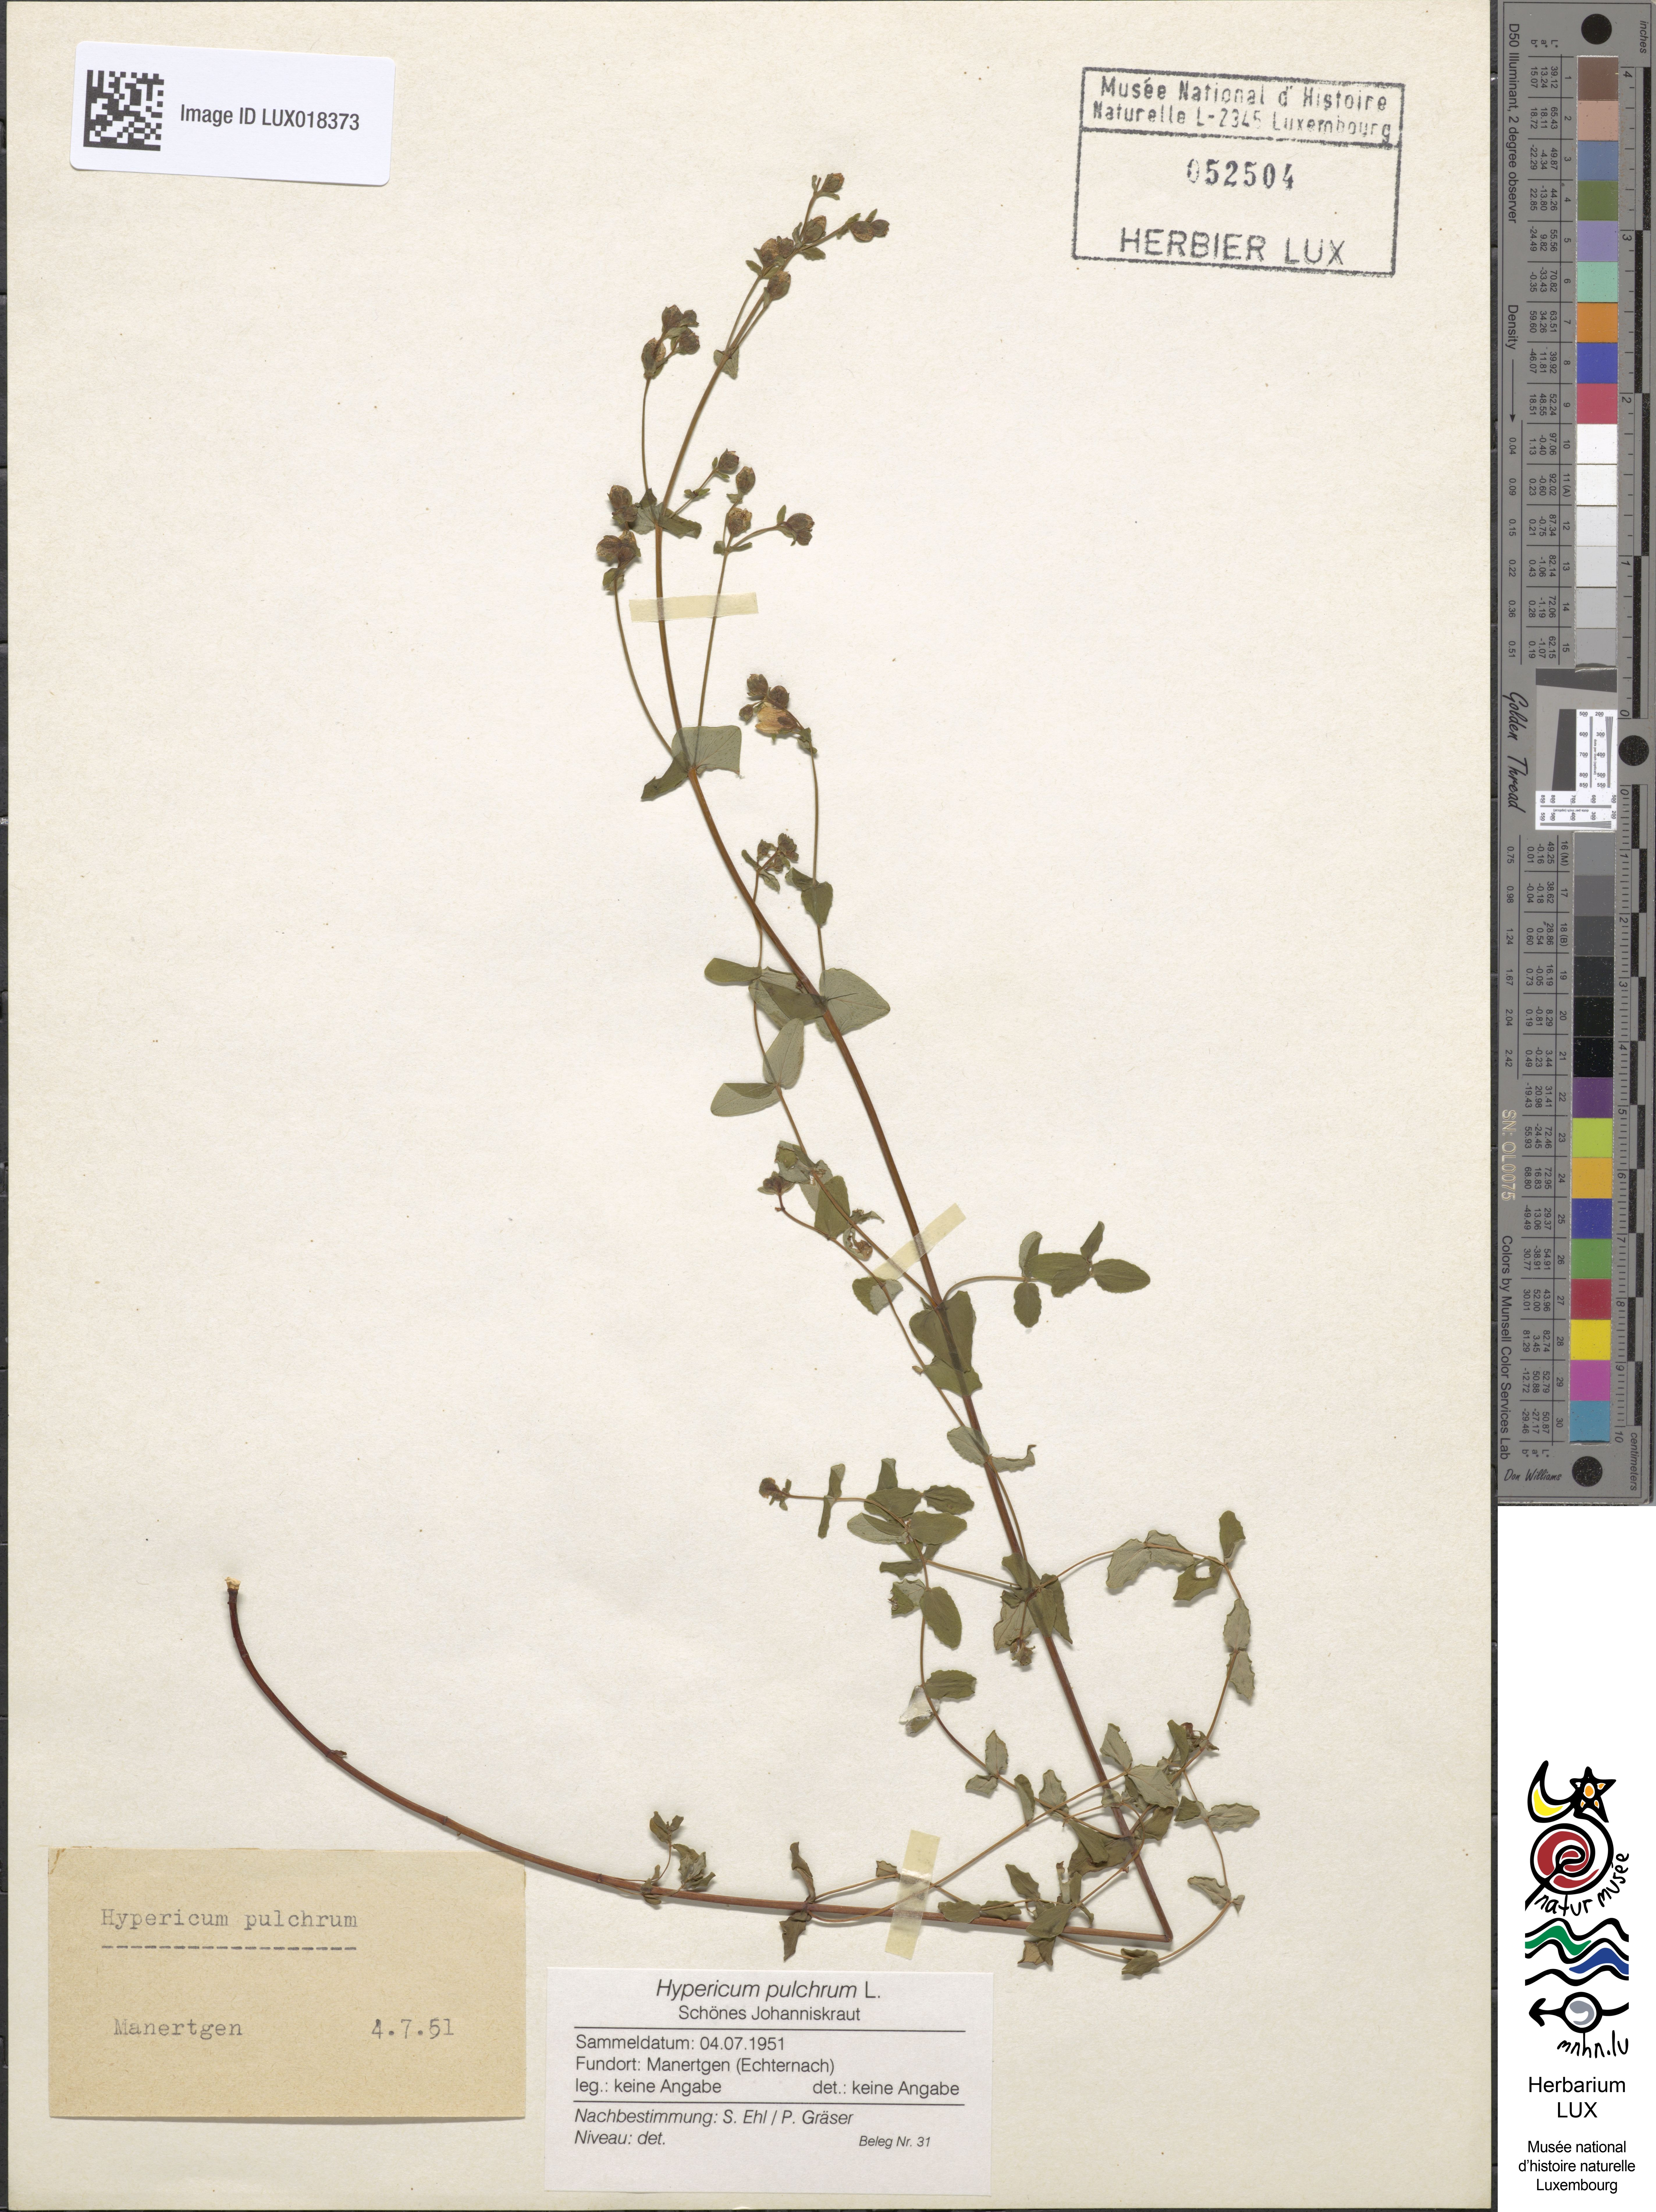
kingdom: Plantae
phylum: Tracheophyta
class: Magnoliopsida
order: Malpighiales
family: Hypericaceae
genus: Hypericum
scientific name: Hypericum pulchrum
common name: Slender st. john's-wort
